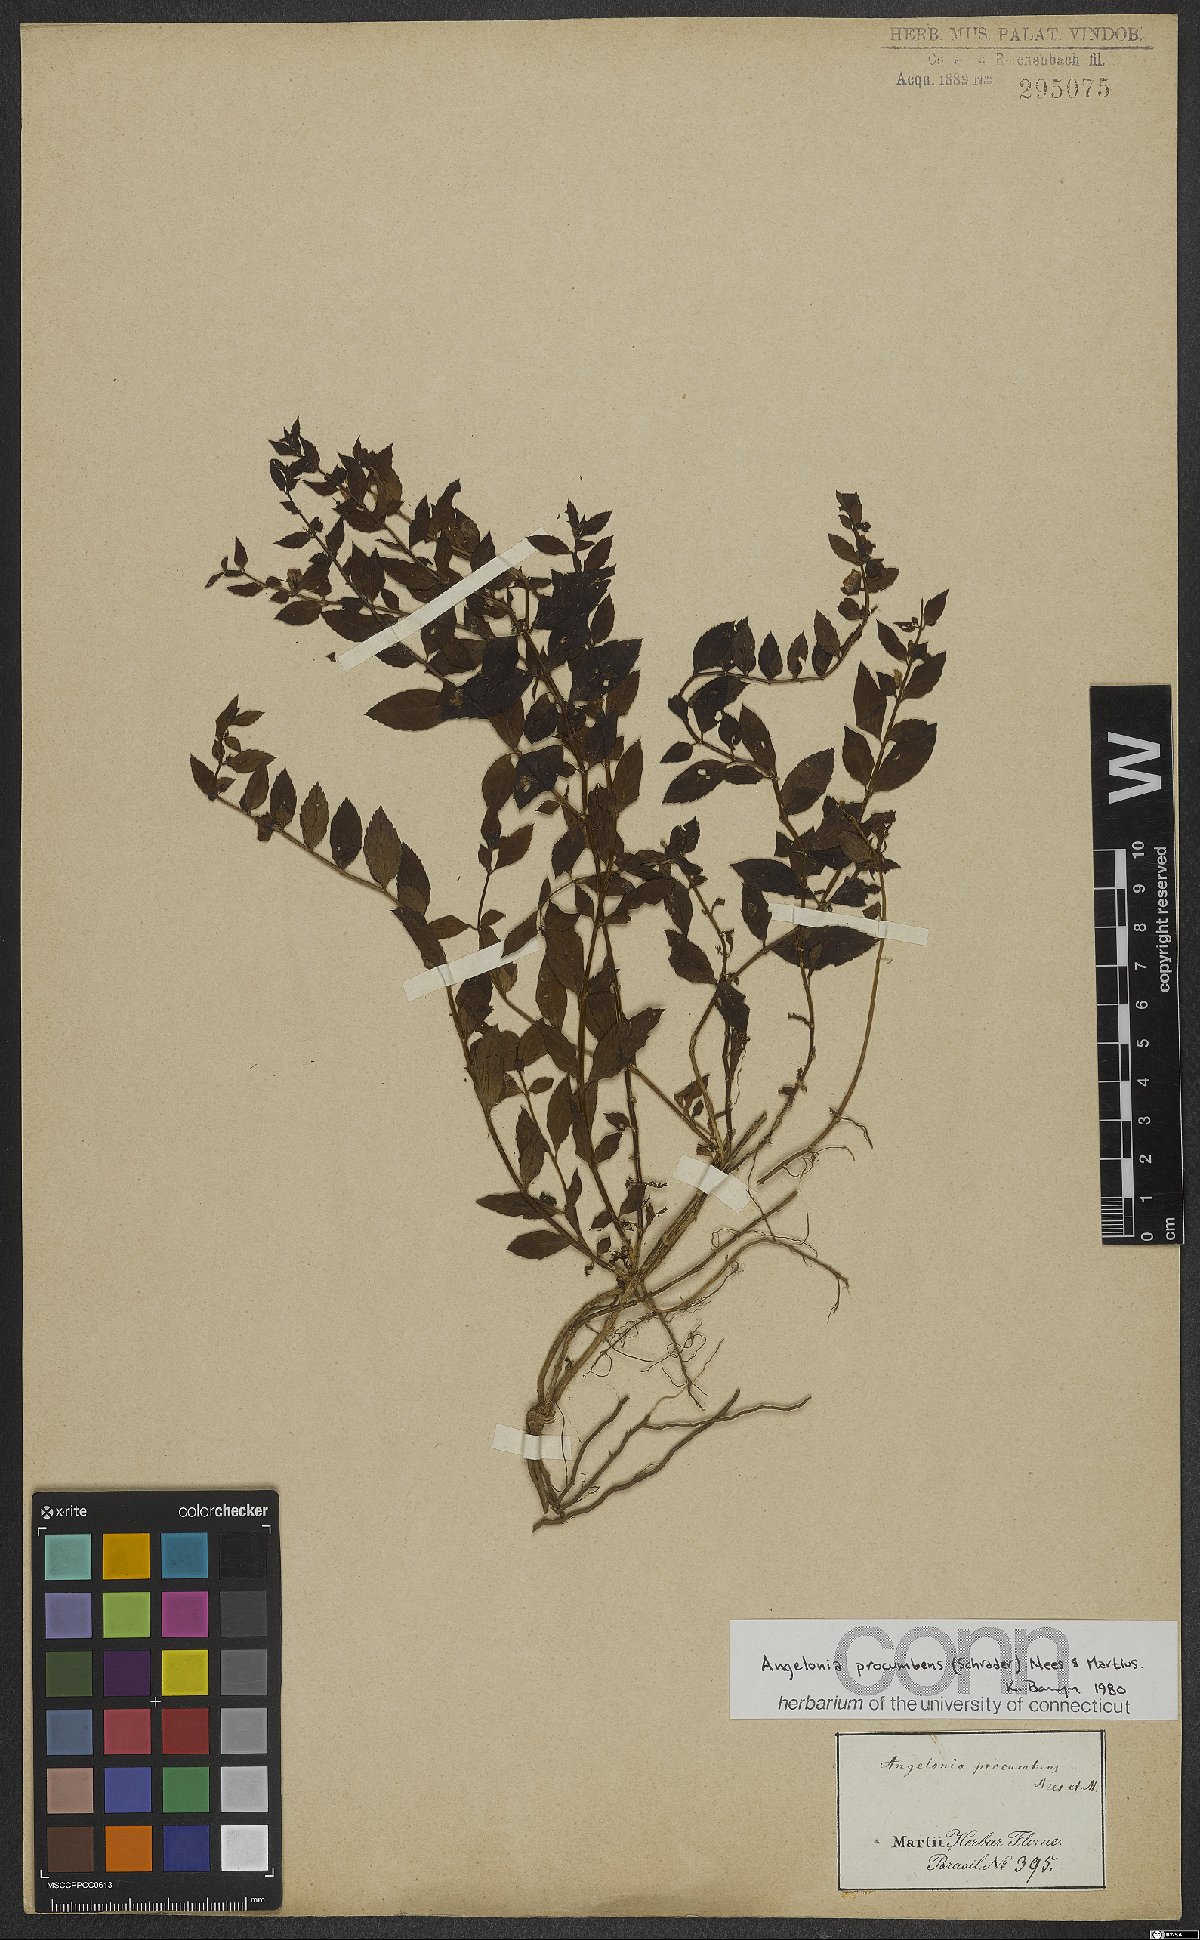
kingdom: Plantae
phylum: Tracheophyta
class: Magnoliopsida
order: Lamiales
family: Plantaginaceae
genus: Angelonia
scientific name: Angelonia procumbens
